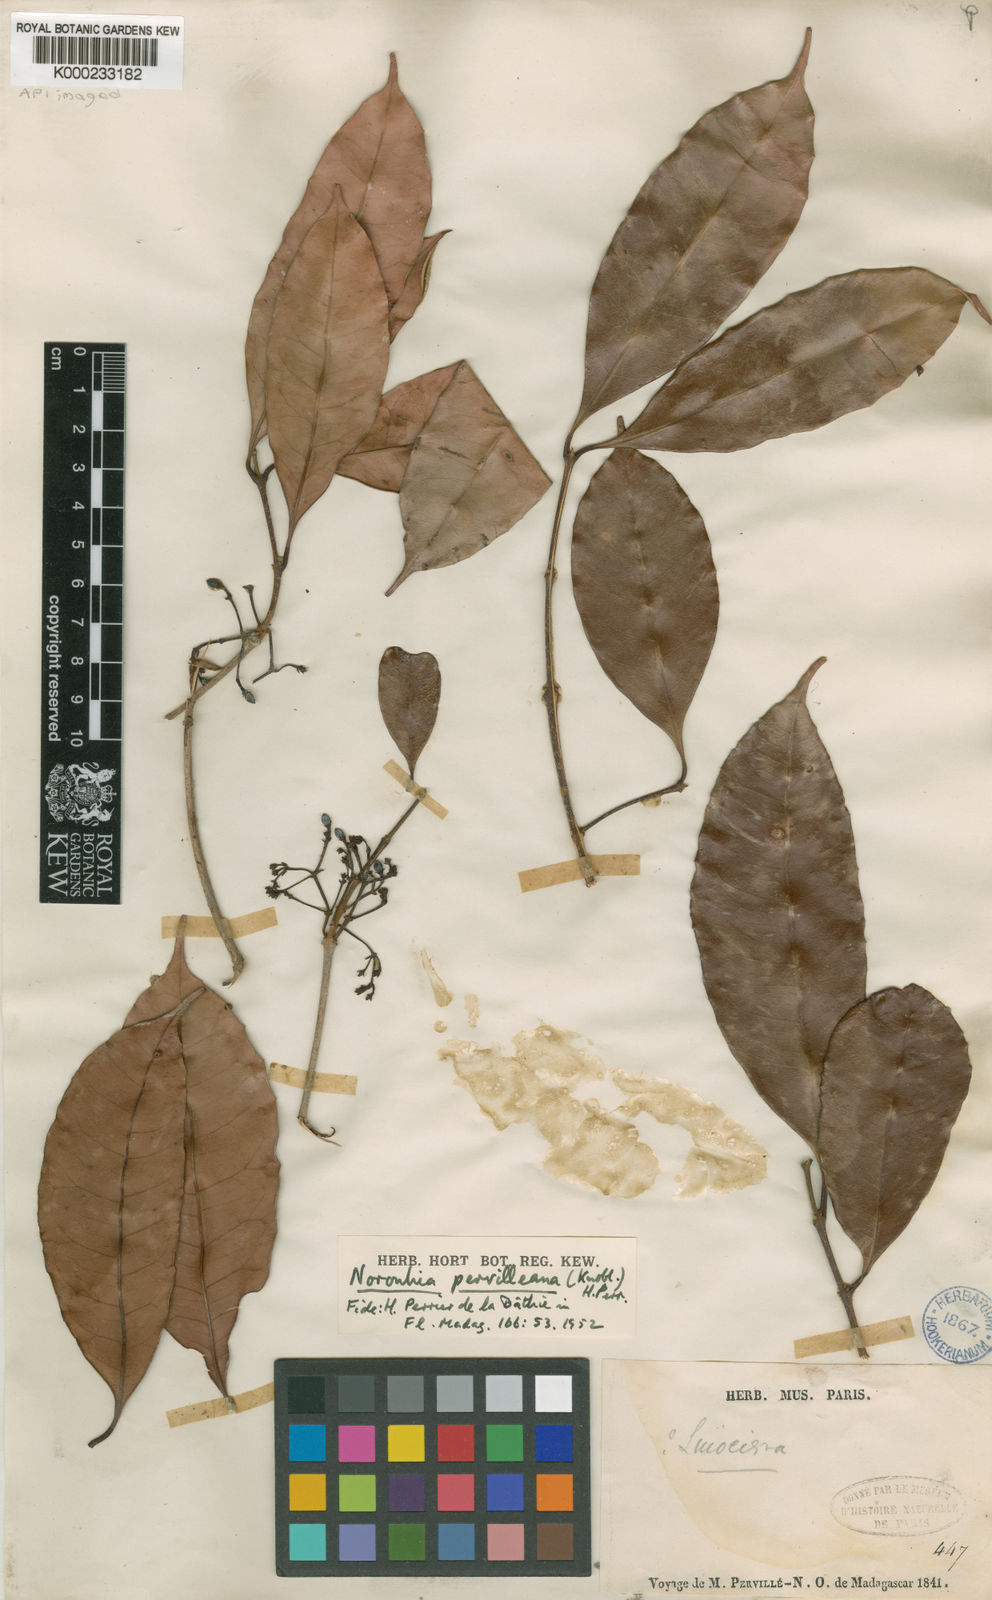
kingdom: Plantae
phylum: Tracheophyta
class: Magnoliopsida
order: Lamiales
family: Oleaceae
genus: Noronhia
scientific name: Noronhia pervilleana
